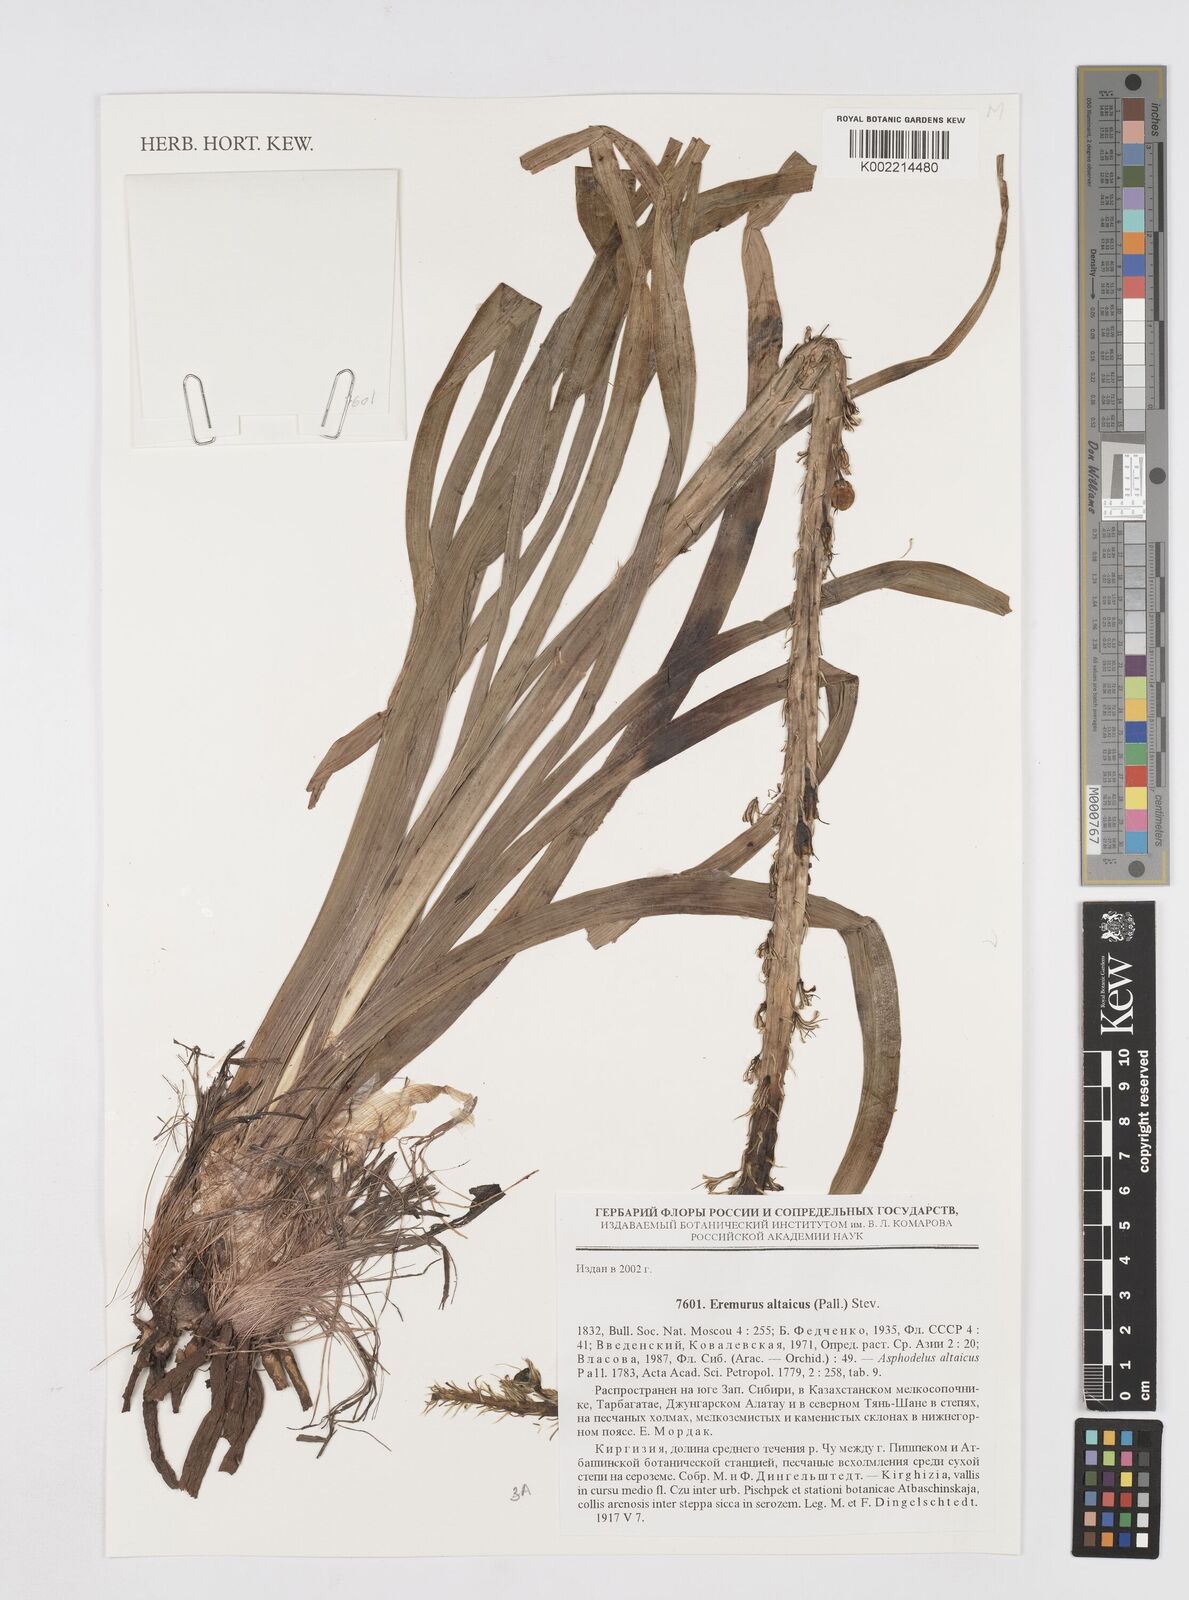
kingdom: Plantae
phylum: Tracheophyta
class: Liliopsida
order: Asparagales
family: Asphodelaceae
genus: Eremurus
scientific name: Eremurus altaicus
